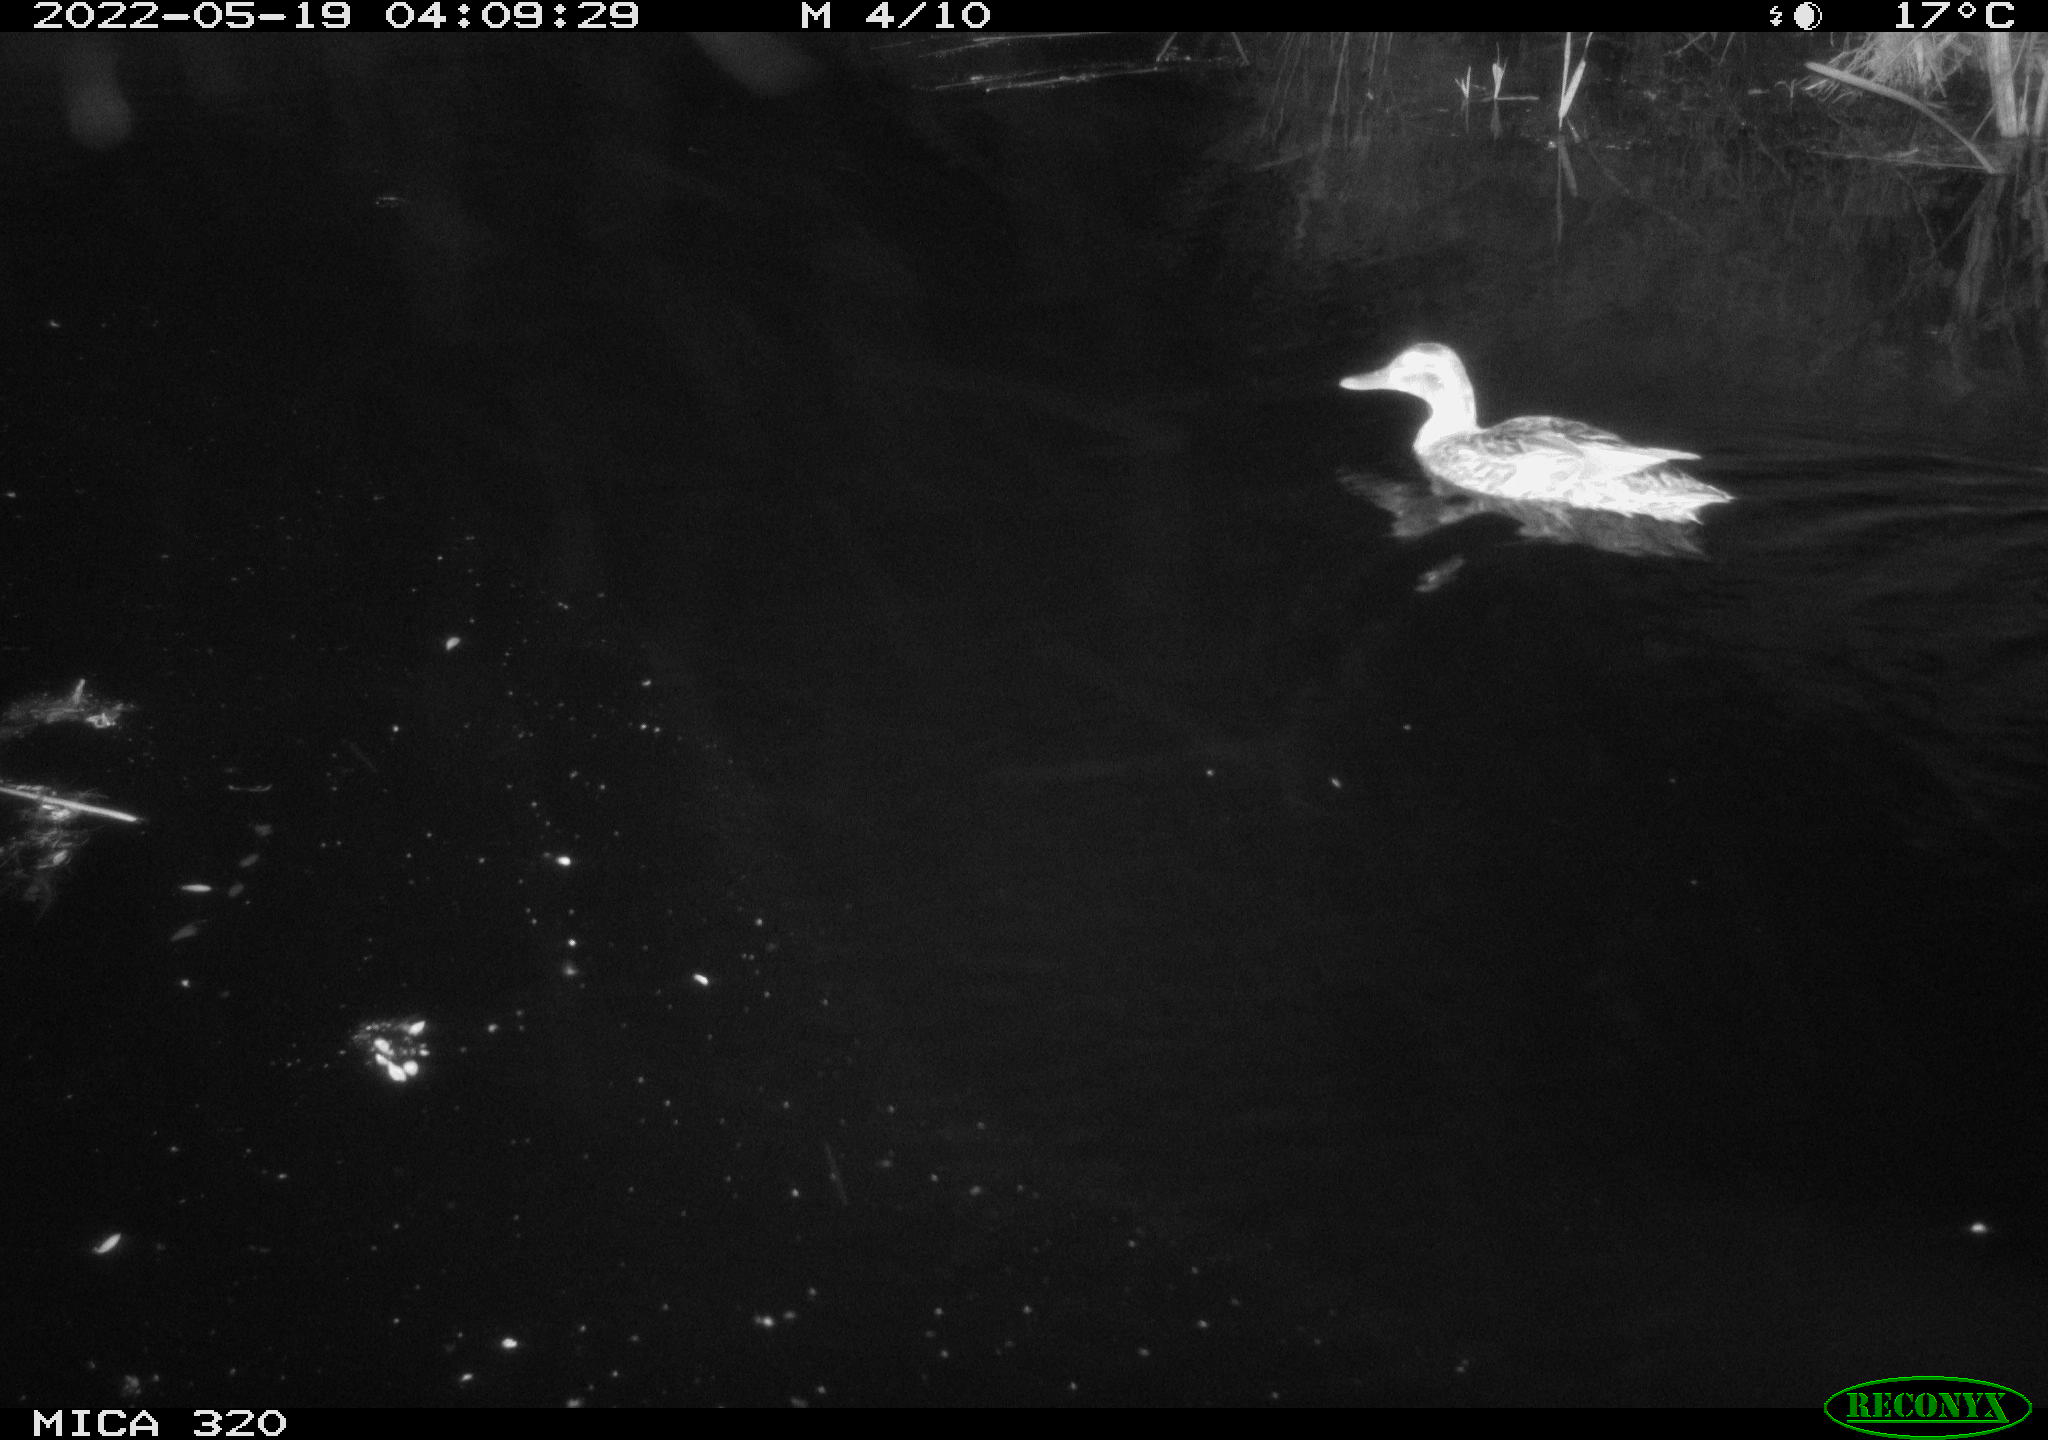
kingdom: Animalia
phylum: Chordata
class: Aves
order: Anseriformes
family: Anatidae
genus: Anas
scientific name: Anas platyrhynchos
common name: Mallard
